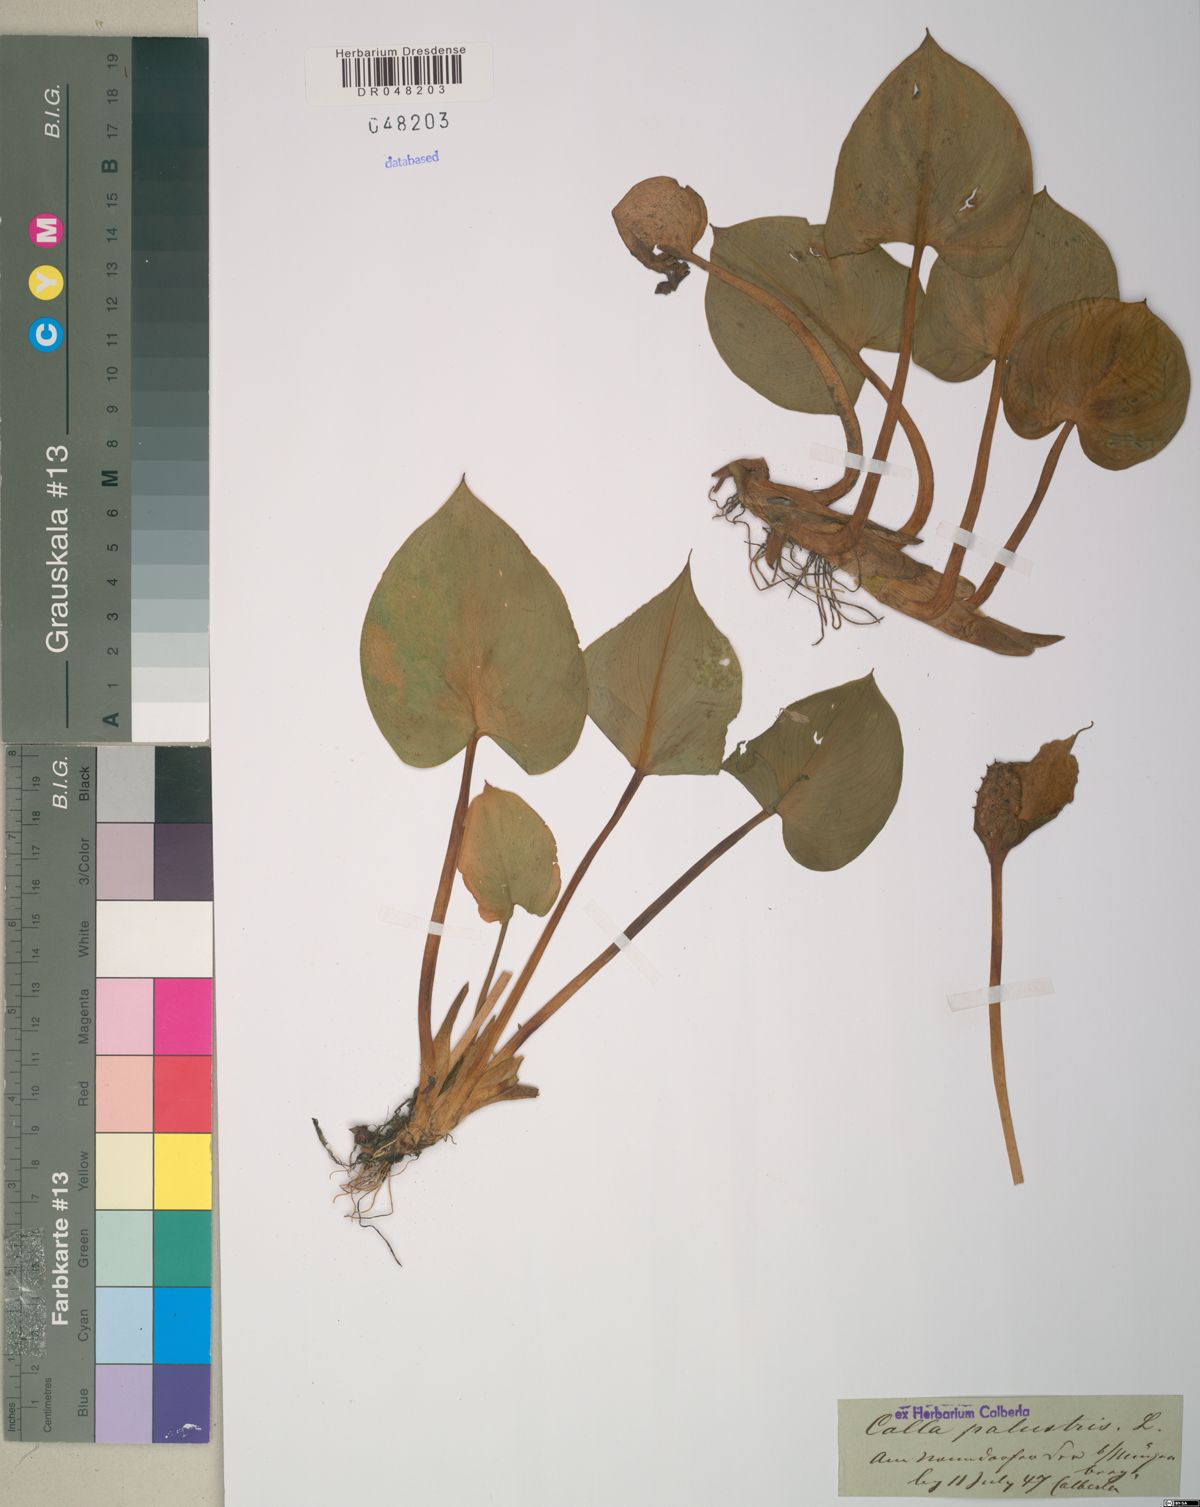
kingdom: Plantae
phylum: Tracheophyta
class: Liliopsida
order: Alismatales
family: Araceae
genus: Calla
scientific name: Calla palustris
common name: Bog arum
